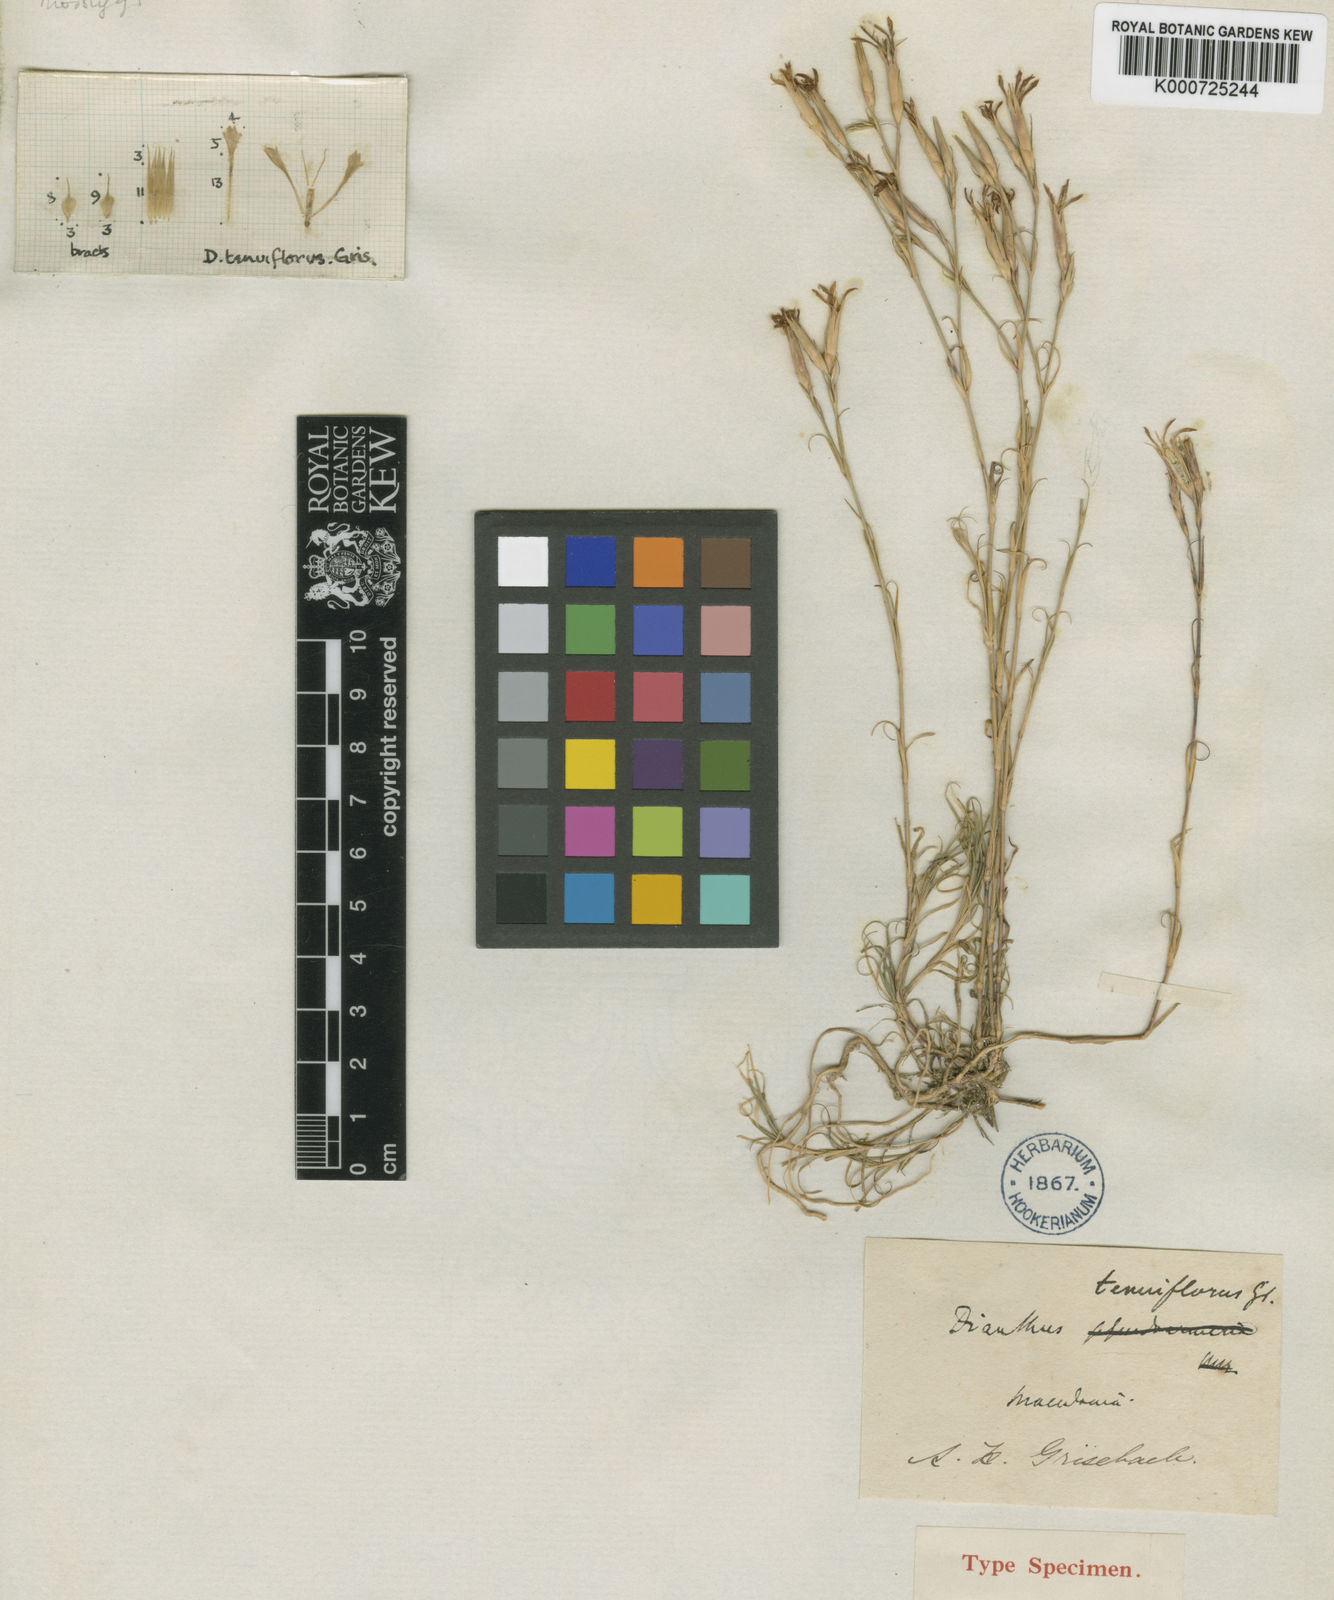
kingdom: Plantae
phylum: Tracheophyta
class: Magnoliopsida
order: Caryophyllales
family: Caryophyllaceae
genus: Dianthus
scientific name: Dianthus tenuiflorus
